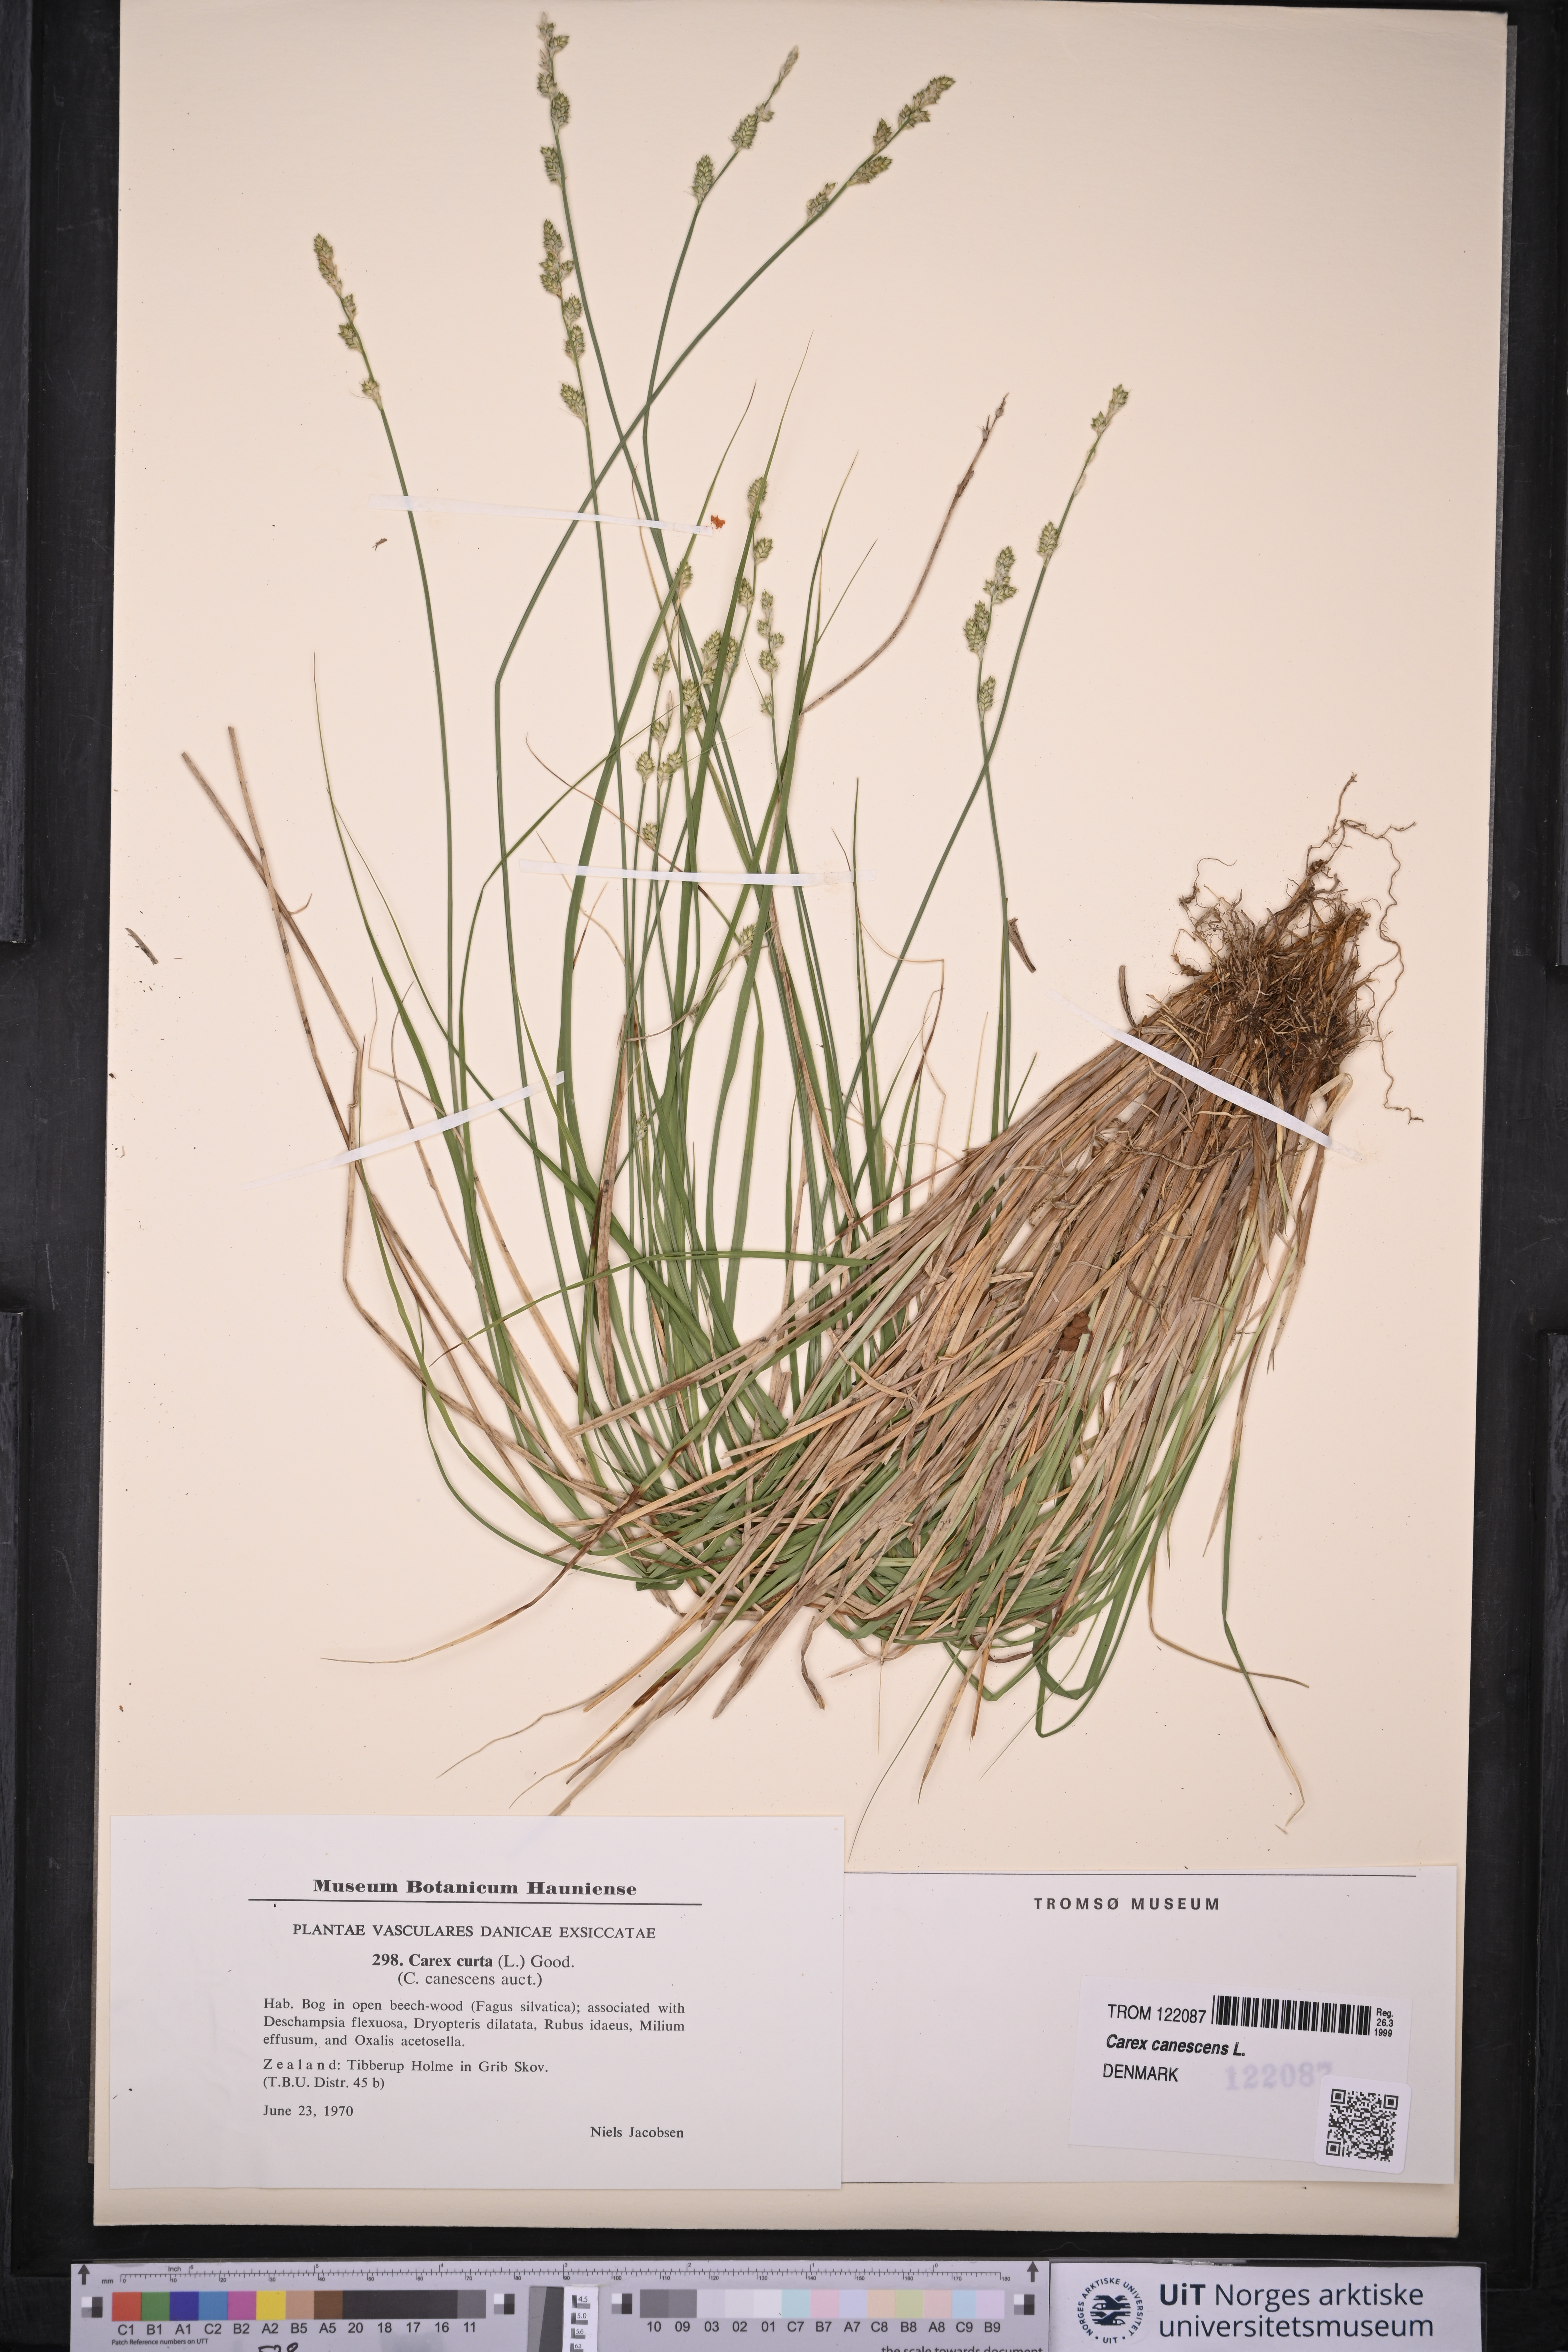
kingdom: Plantae
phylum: Tracheophyta
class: Liliopsida
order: Poales
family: Cyperaceae
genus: Carex
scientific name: Carex canescens
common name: White sedge
